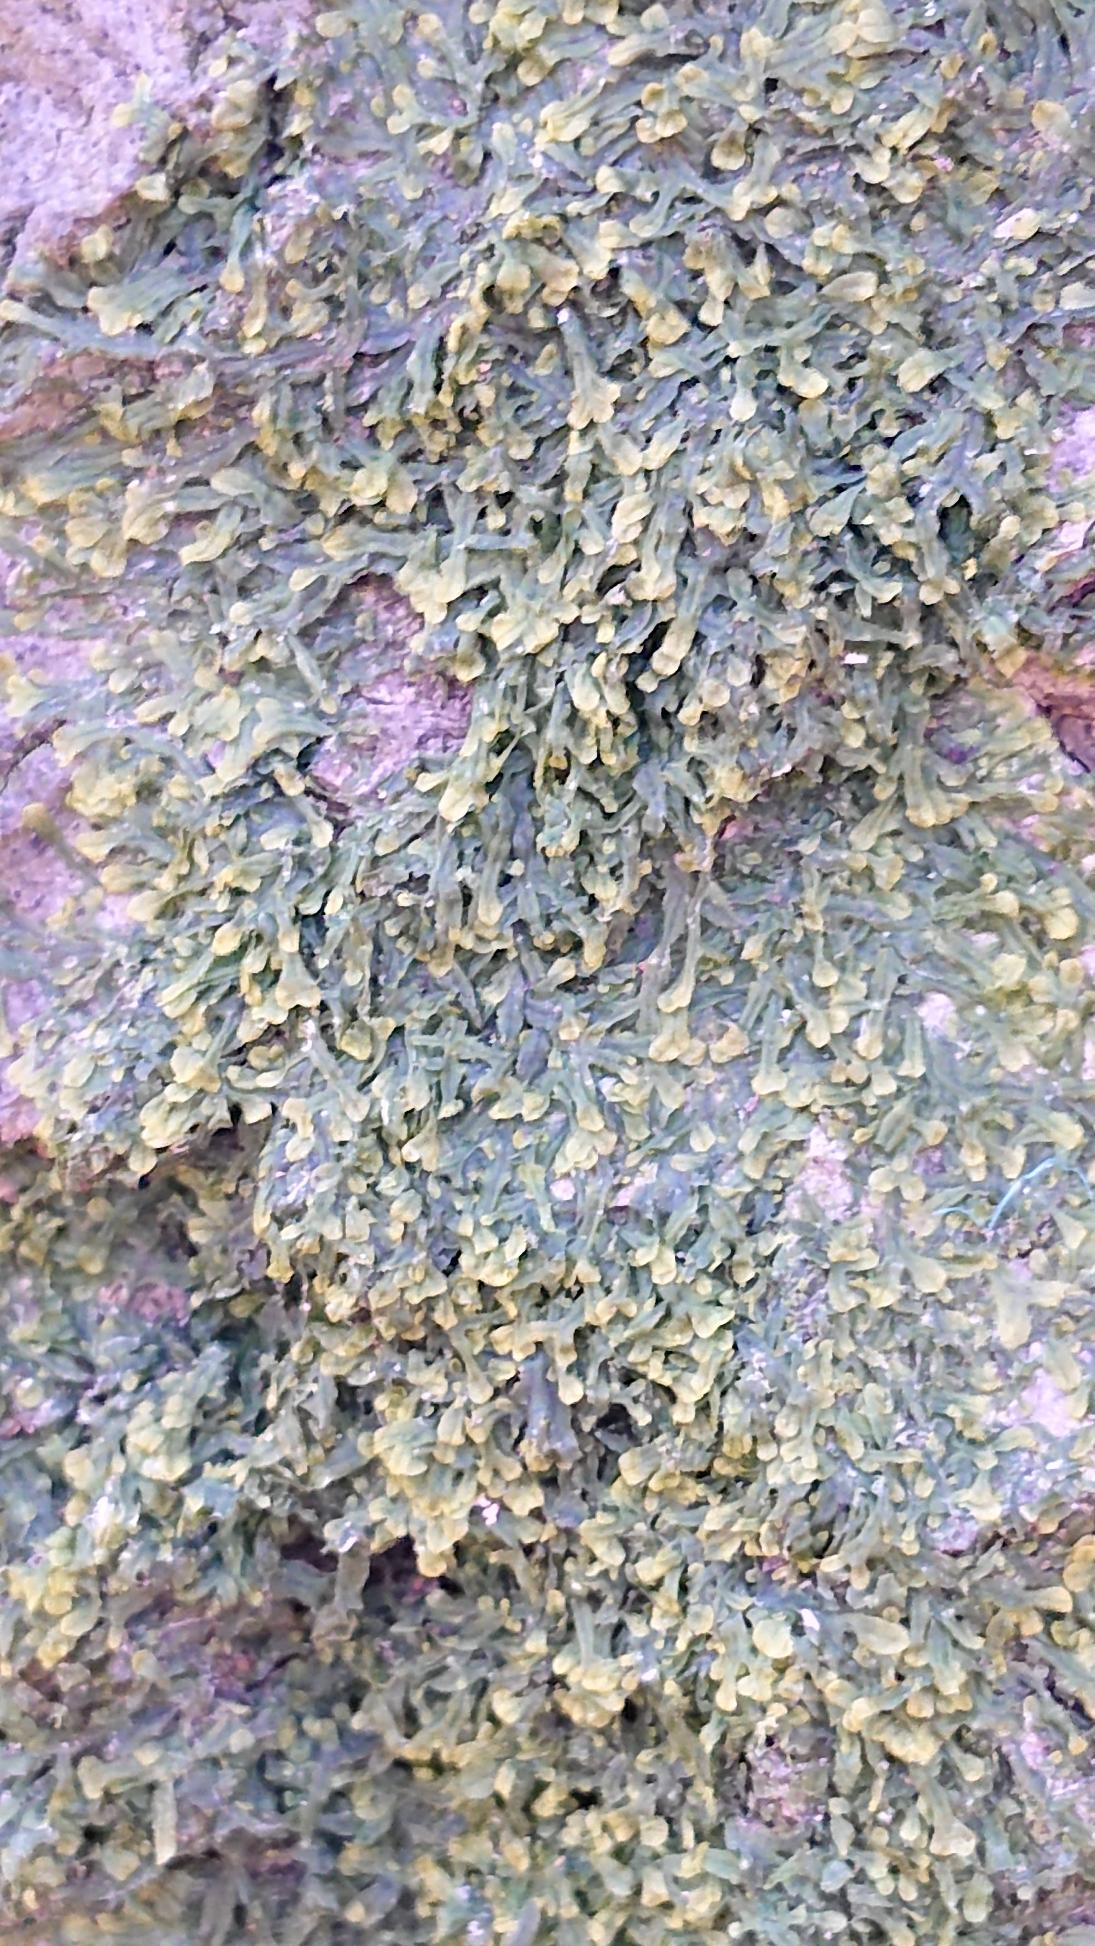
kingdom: Plantae
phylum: Marchantiophyta
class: Jungermanniopsida
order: Metzgeriales
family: Metzgeriaceae
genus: Metzgeria
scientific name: Metzgeria furcata
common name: Almindelig gaffelløv
